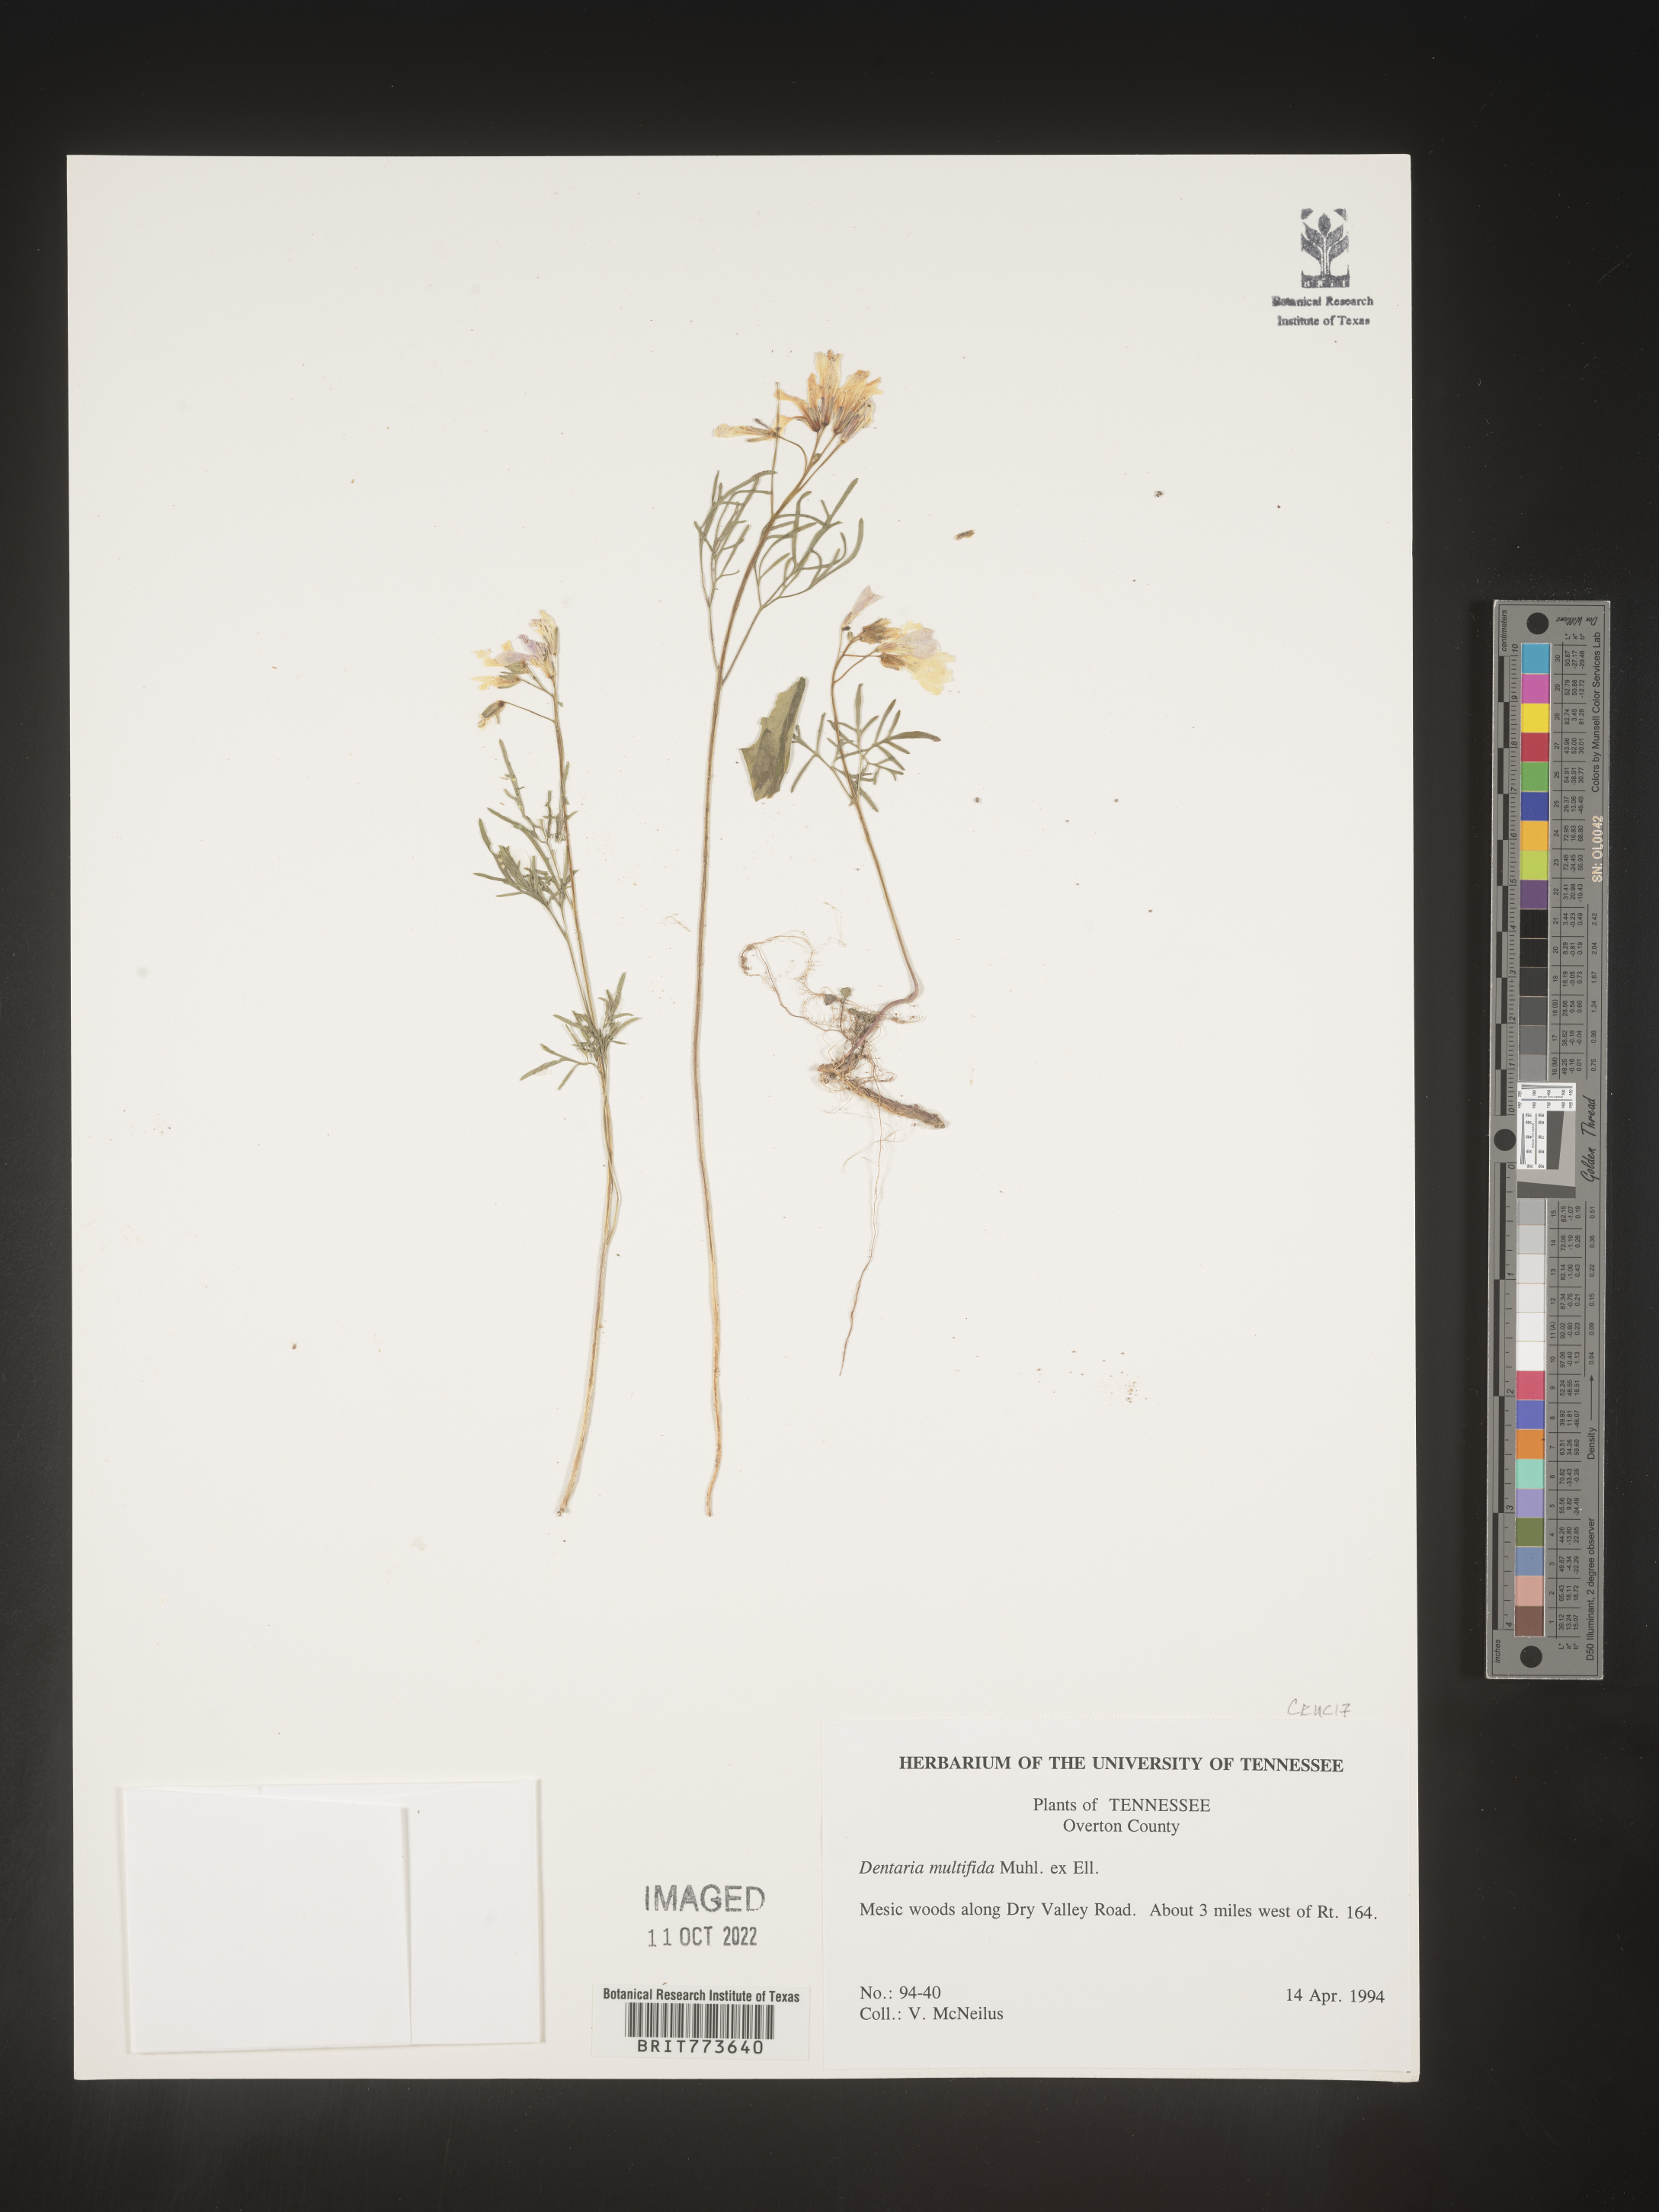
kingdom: Plantae
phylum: Tracheophyta
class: Magnoliopsida
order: Brassicales
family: Brassicaceae
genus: Cardamine
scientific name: Cardamine
